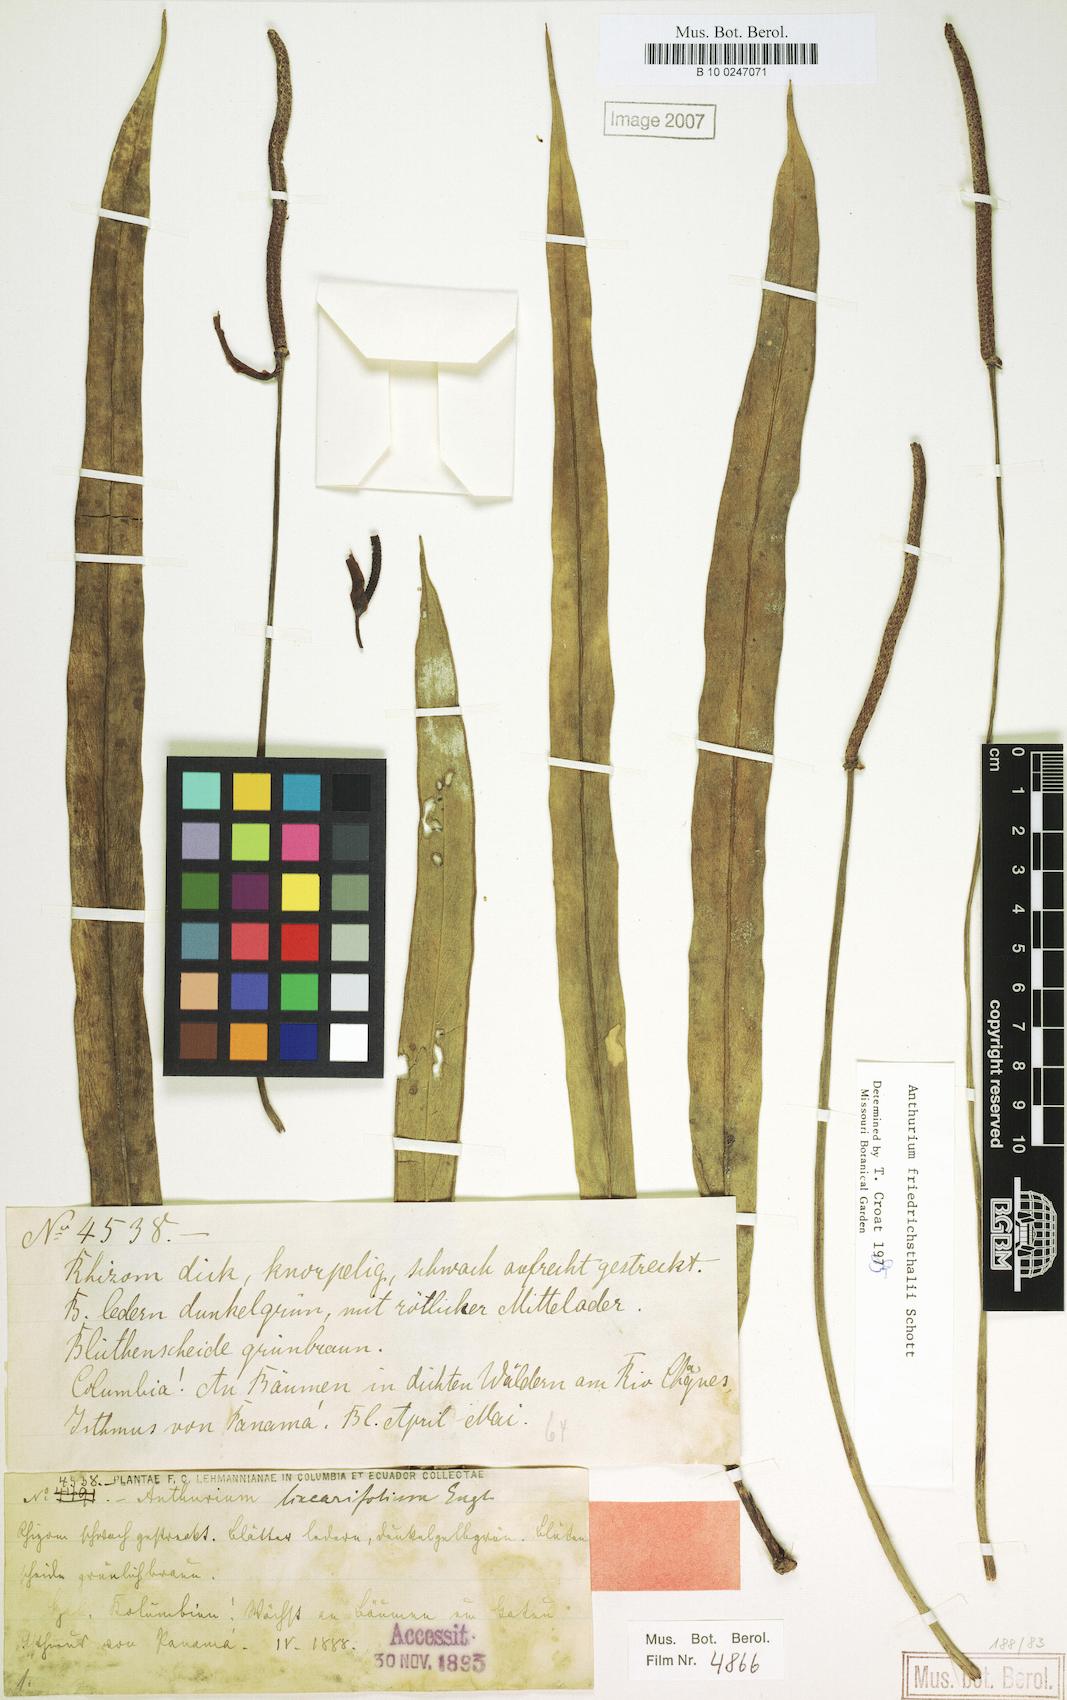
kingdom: Plantae
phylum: Tracheophyta
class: Liliopsida
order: Alismatales
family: Araceae
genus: Anthurium
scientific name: Anthurium friedrichsthalii
